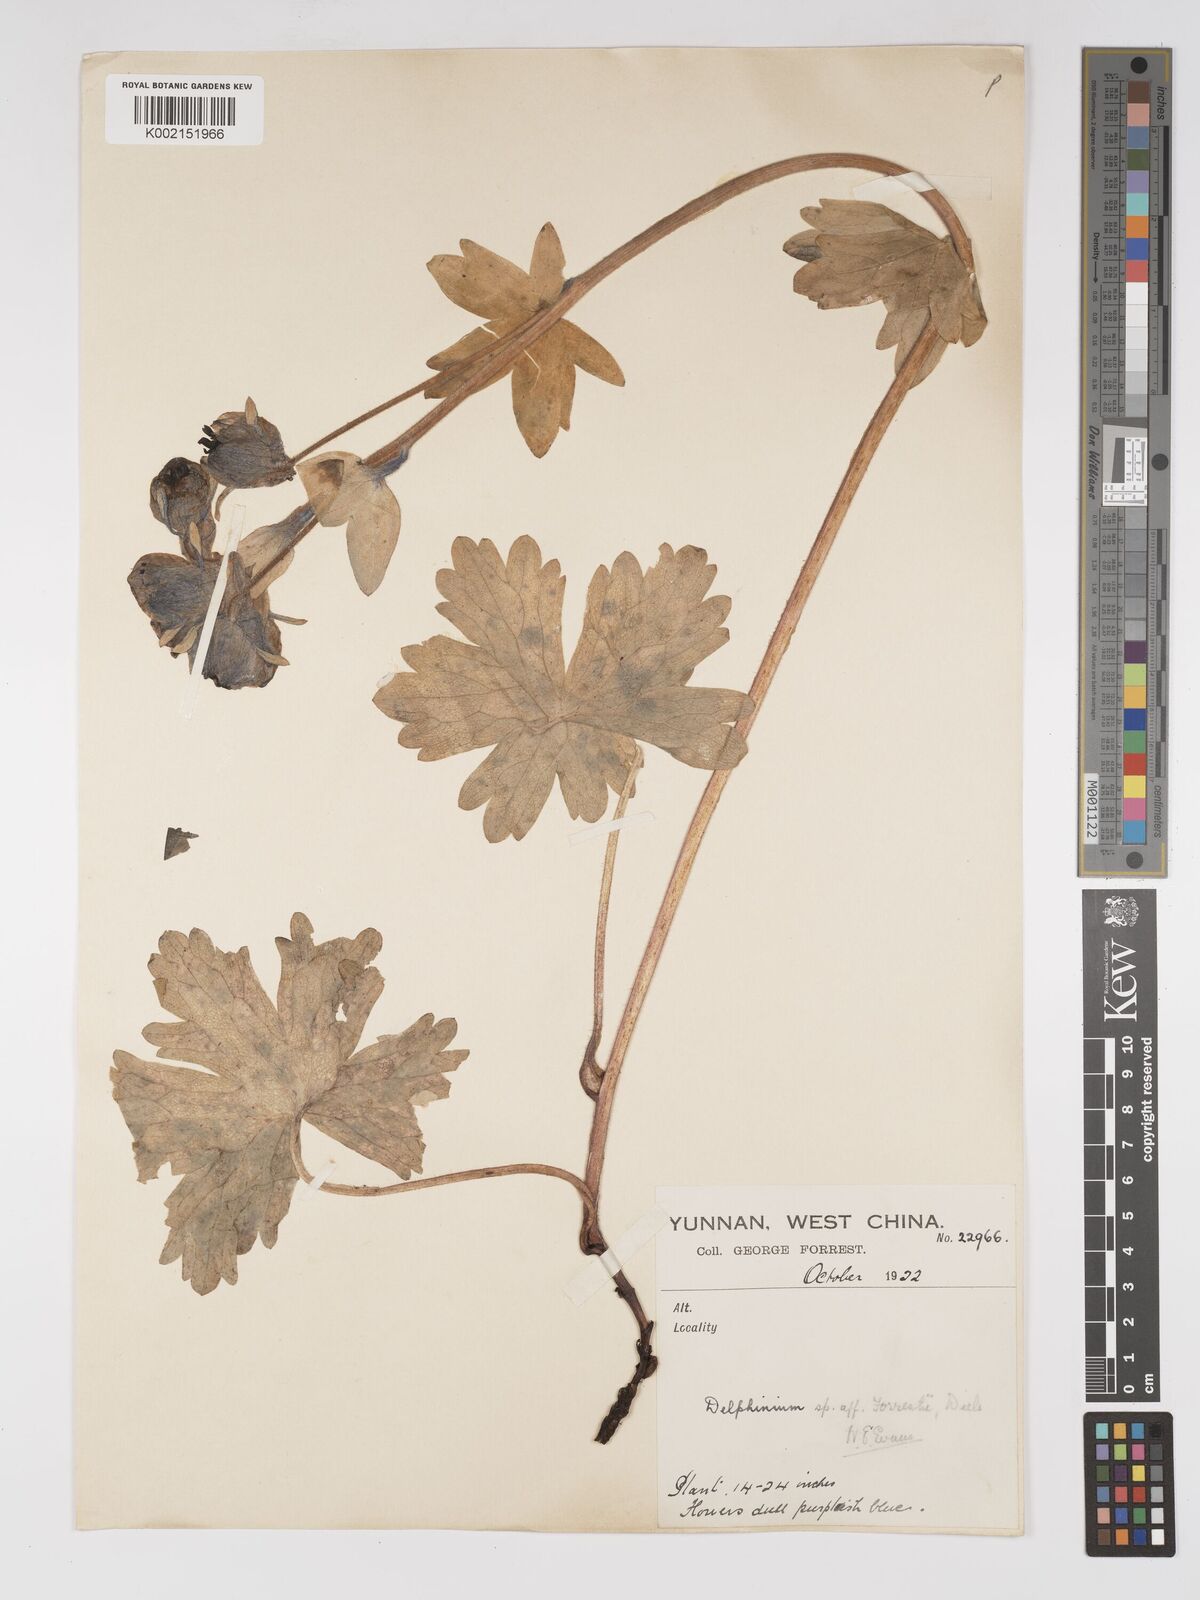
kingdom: Plantae
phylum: Tracheophyta
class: Magnoliopsida
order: Ranunculales
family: Ranunculaceae
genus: Delphinium
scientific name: Delphinium forrestii
